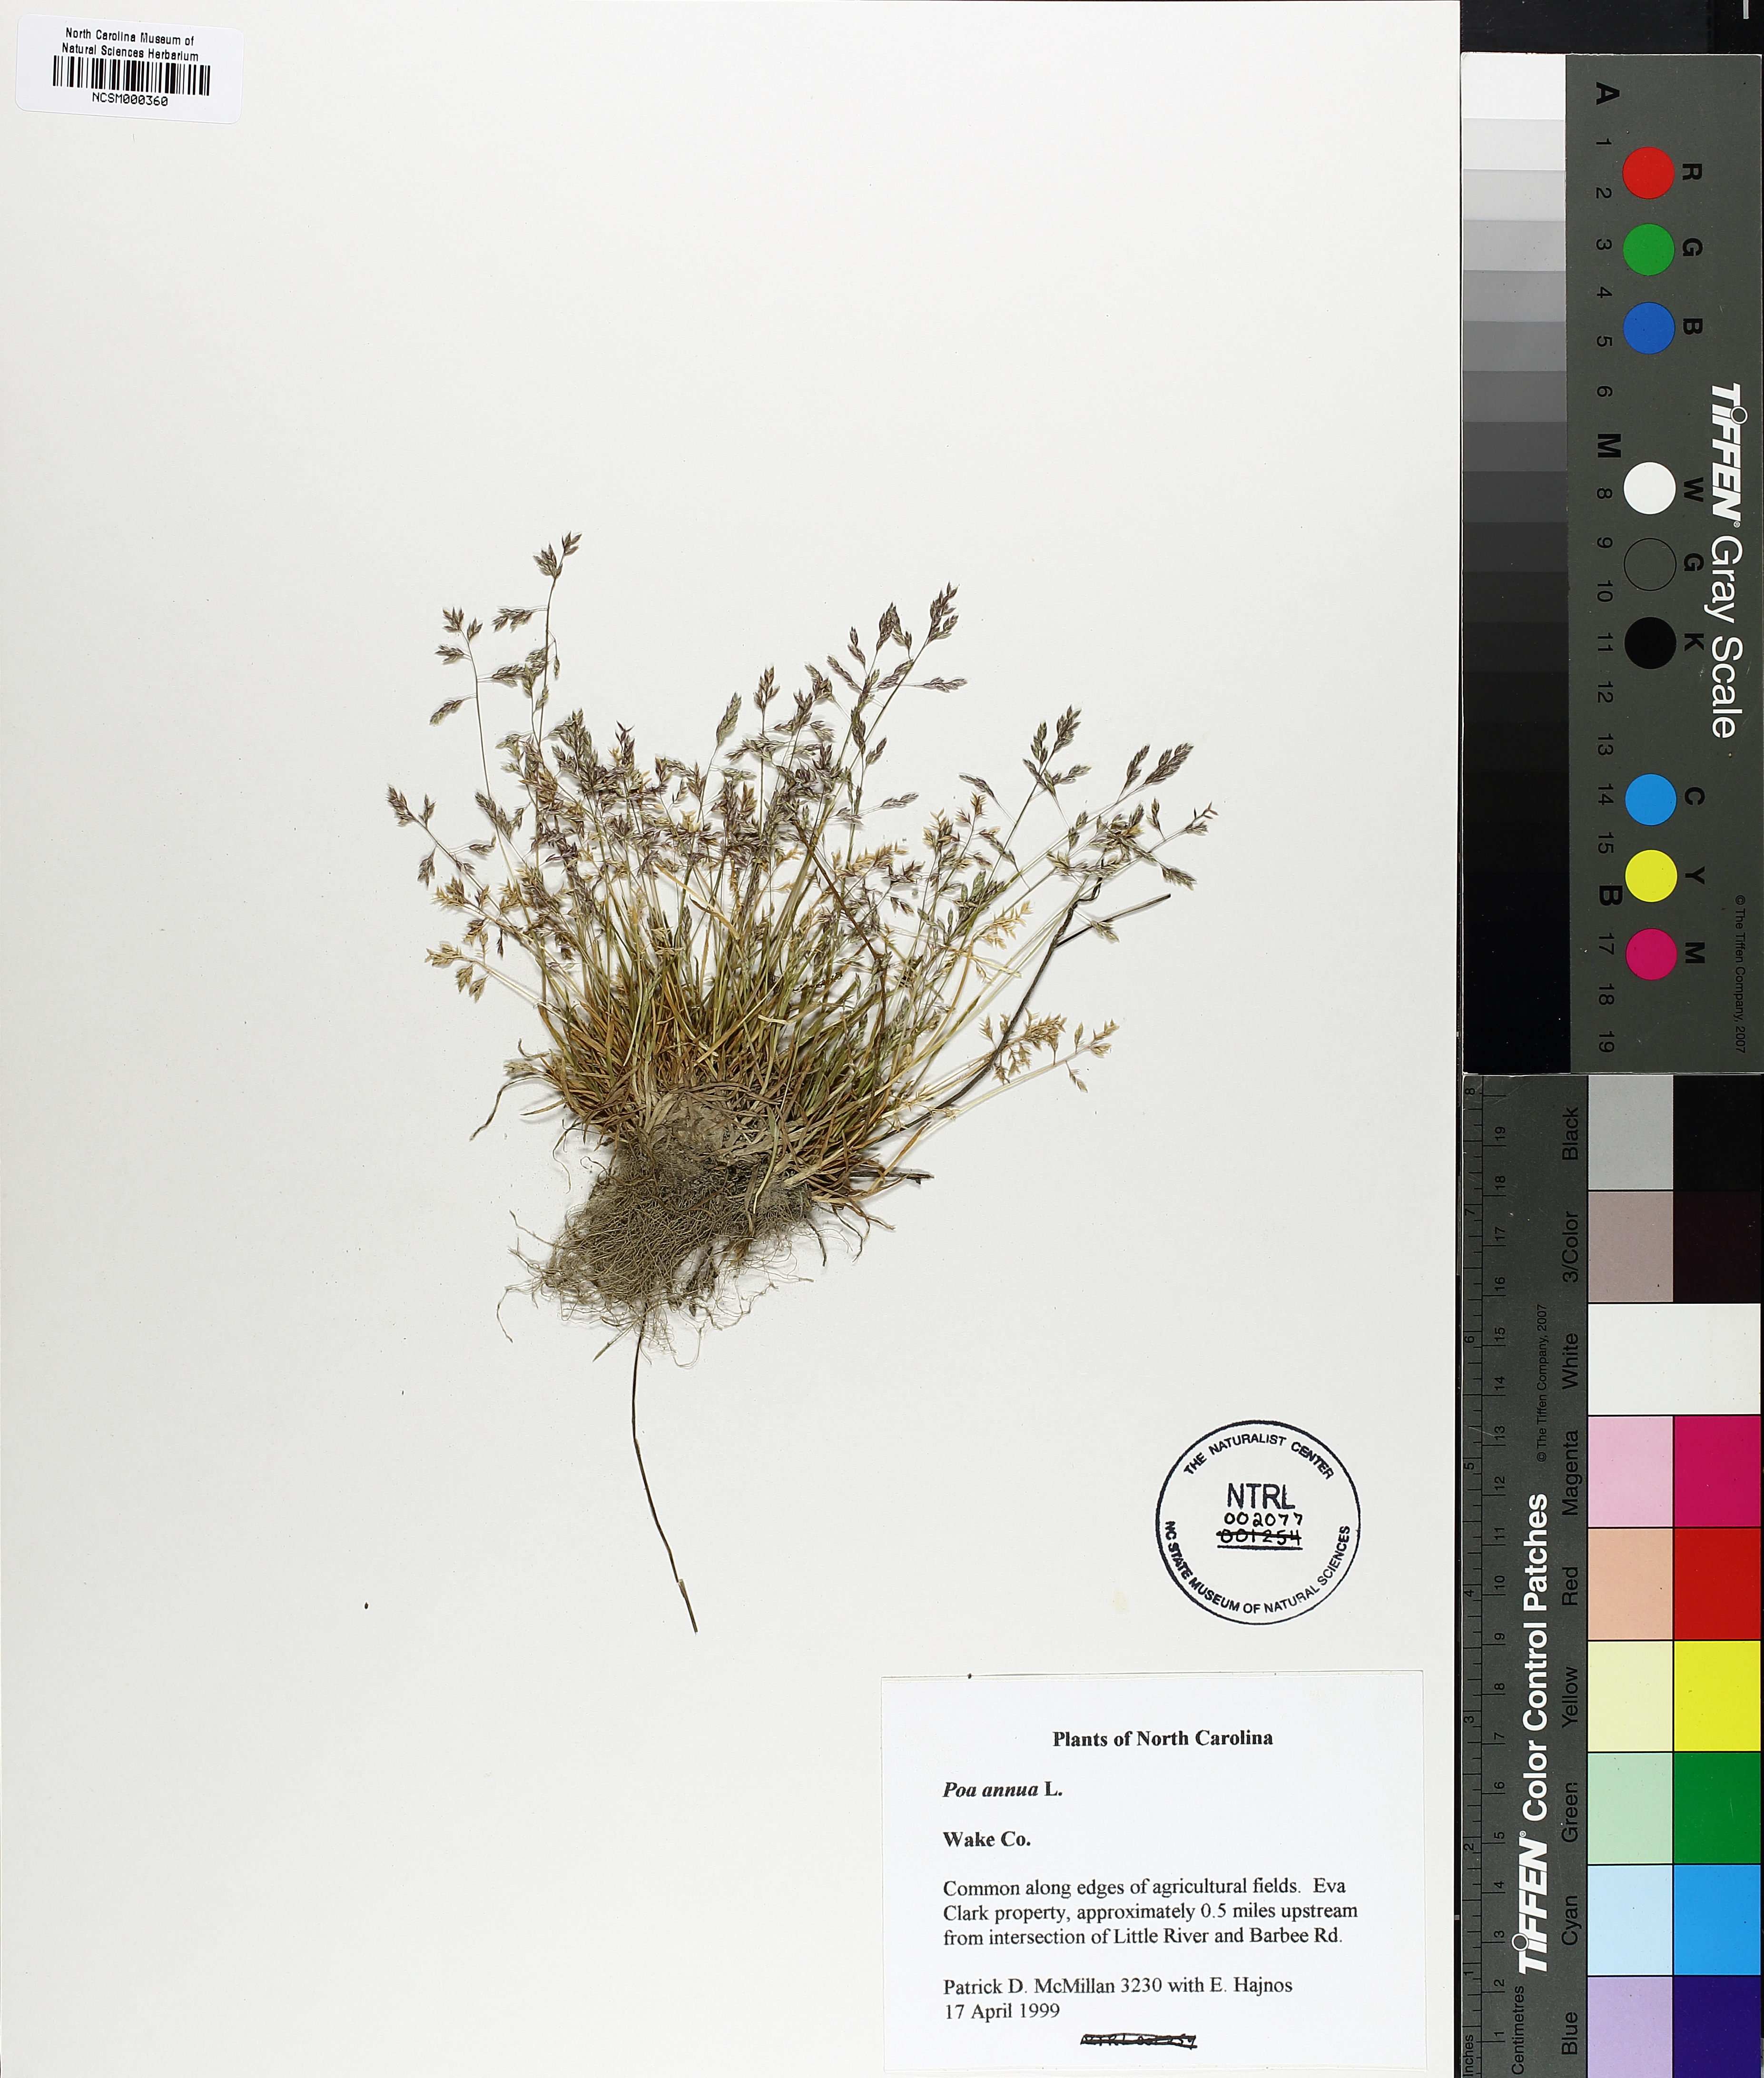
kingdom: Plantae
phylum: Tracheophyta
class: Liliopsida
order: Poales
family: Poaceae
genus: Poa
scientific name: Poa annua
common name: Annual bluegrass
